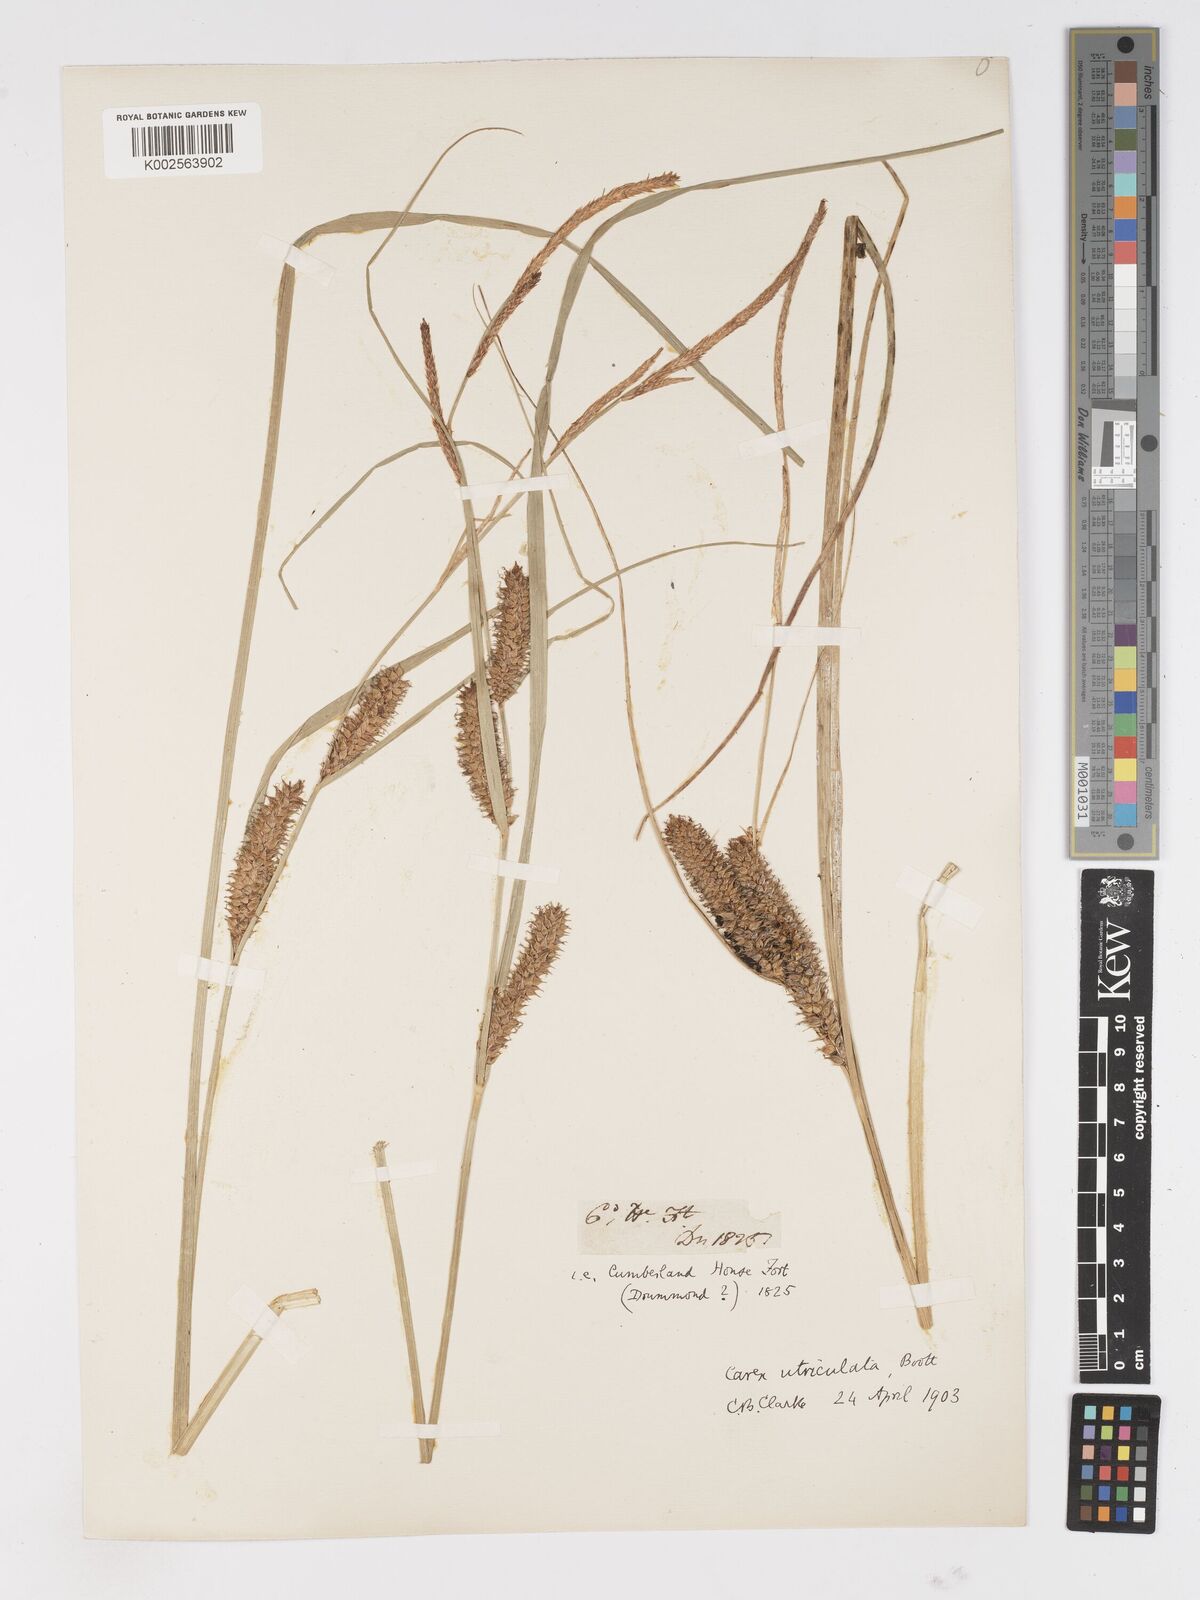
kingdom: Plantae
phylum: Tracheophyta
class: Liliopsida
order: Poales
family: Cyperaceae
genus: Carex
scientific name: Carex rostrata
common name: Bottle sedge
